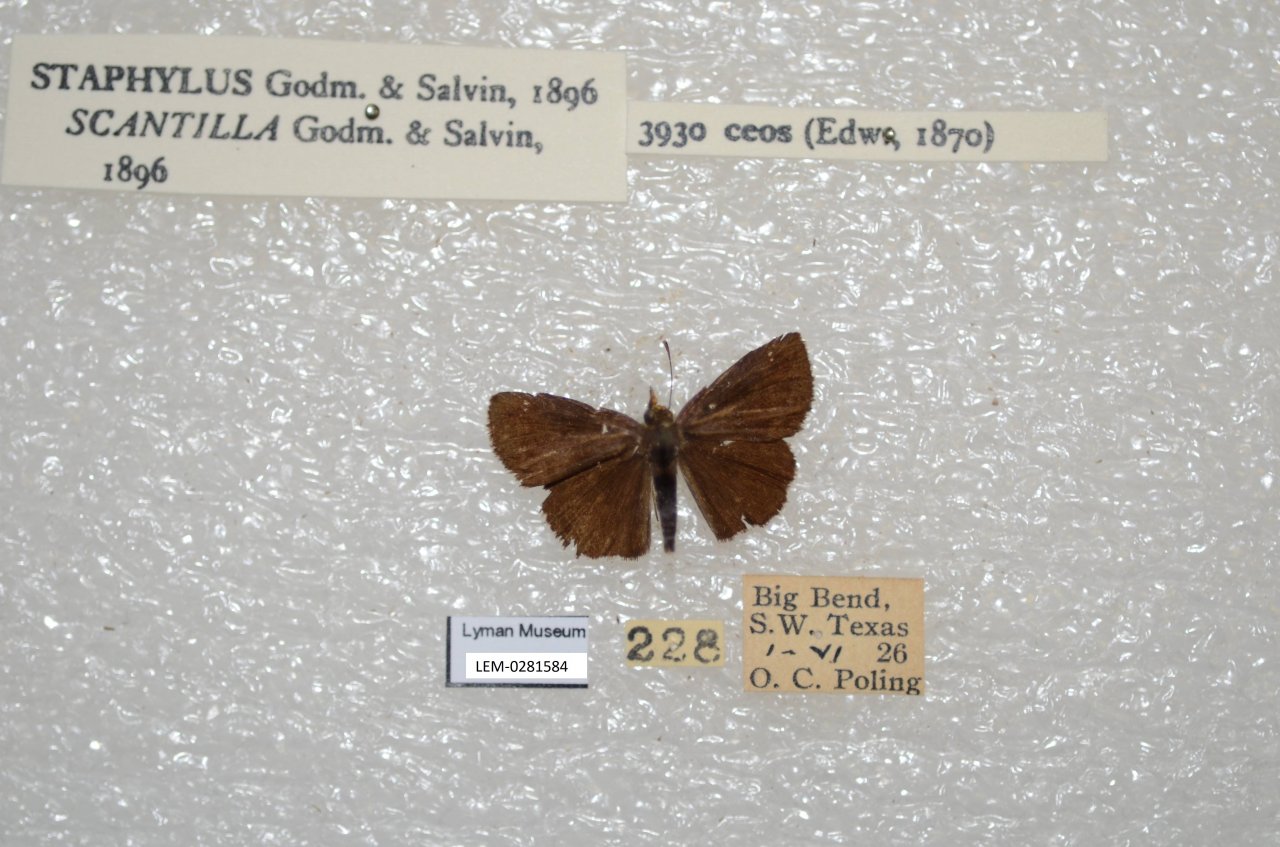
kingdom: Animalia
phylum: Arthropoda
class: Insecta
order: Lepidoptera
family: Hesperiidae
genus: Staphylus
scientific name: Staphylus ceos
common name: Golden-headed Scallopwing
